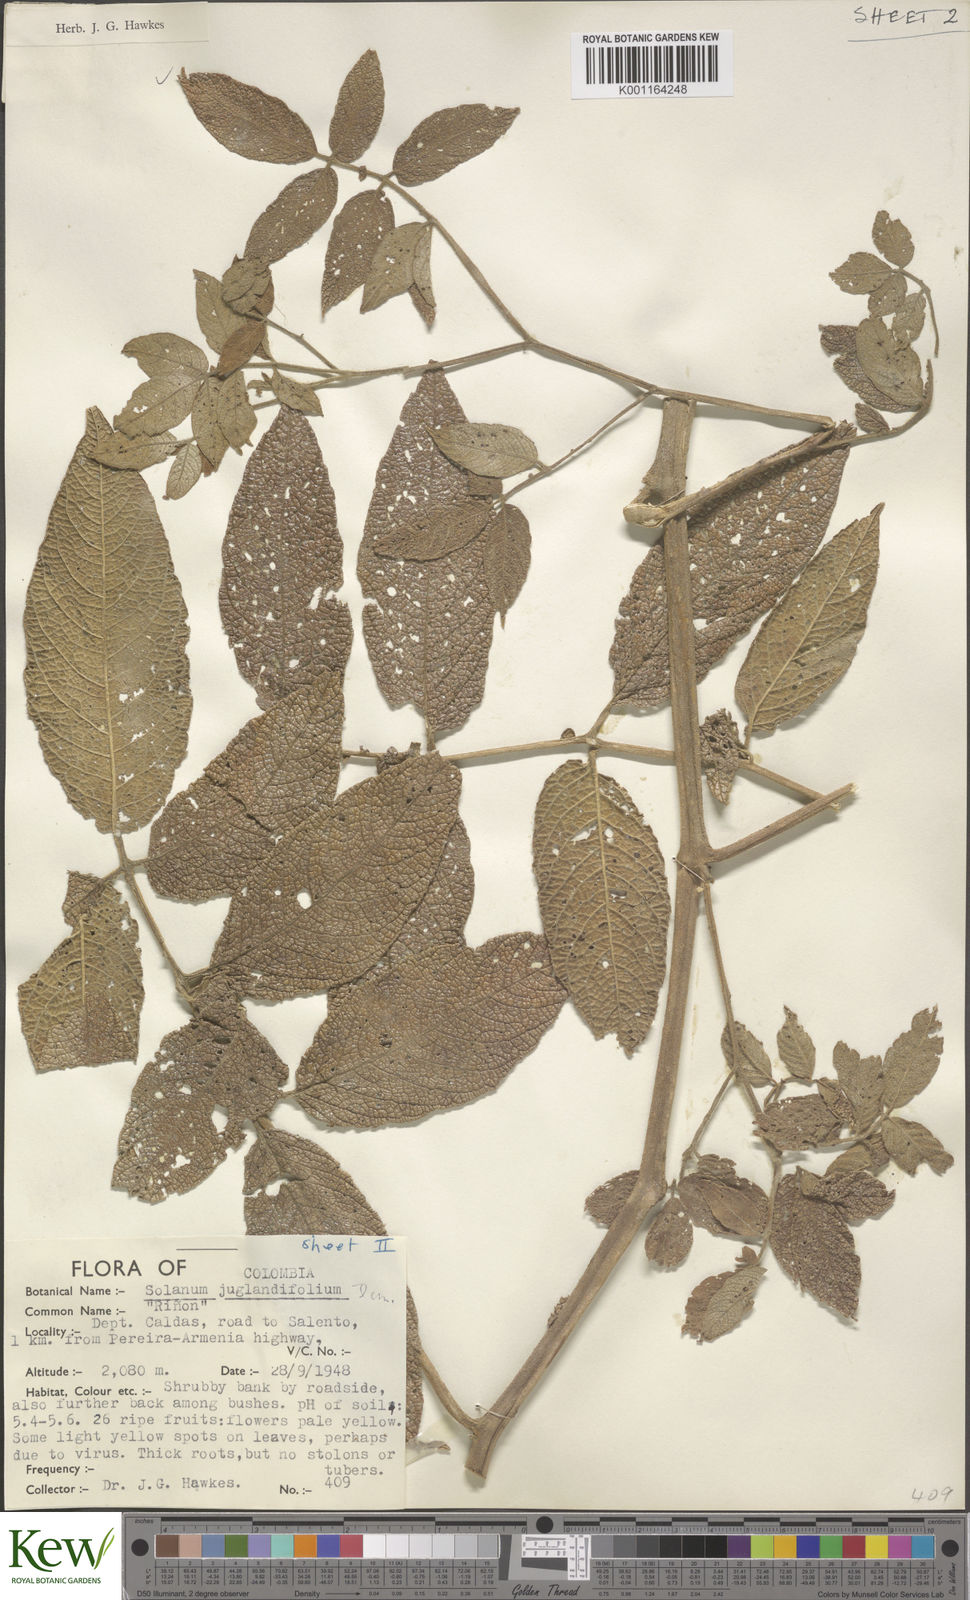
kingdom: Plantae
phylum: Tracheophyta
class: Magnoliopsida
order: Solanales
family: Solanaceae
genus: Solanum
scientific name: Solanum juglandifolium
